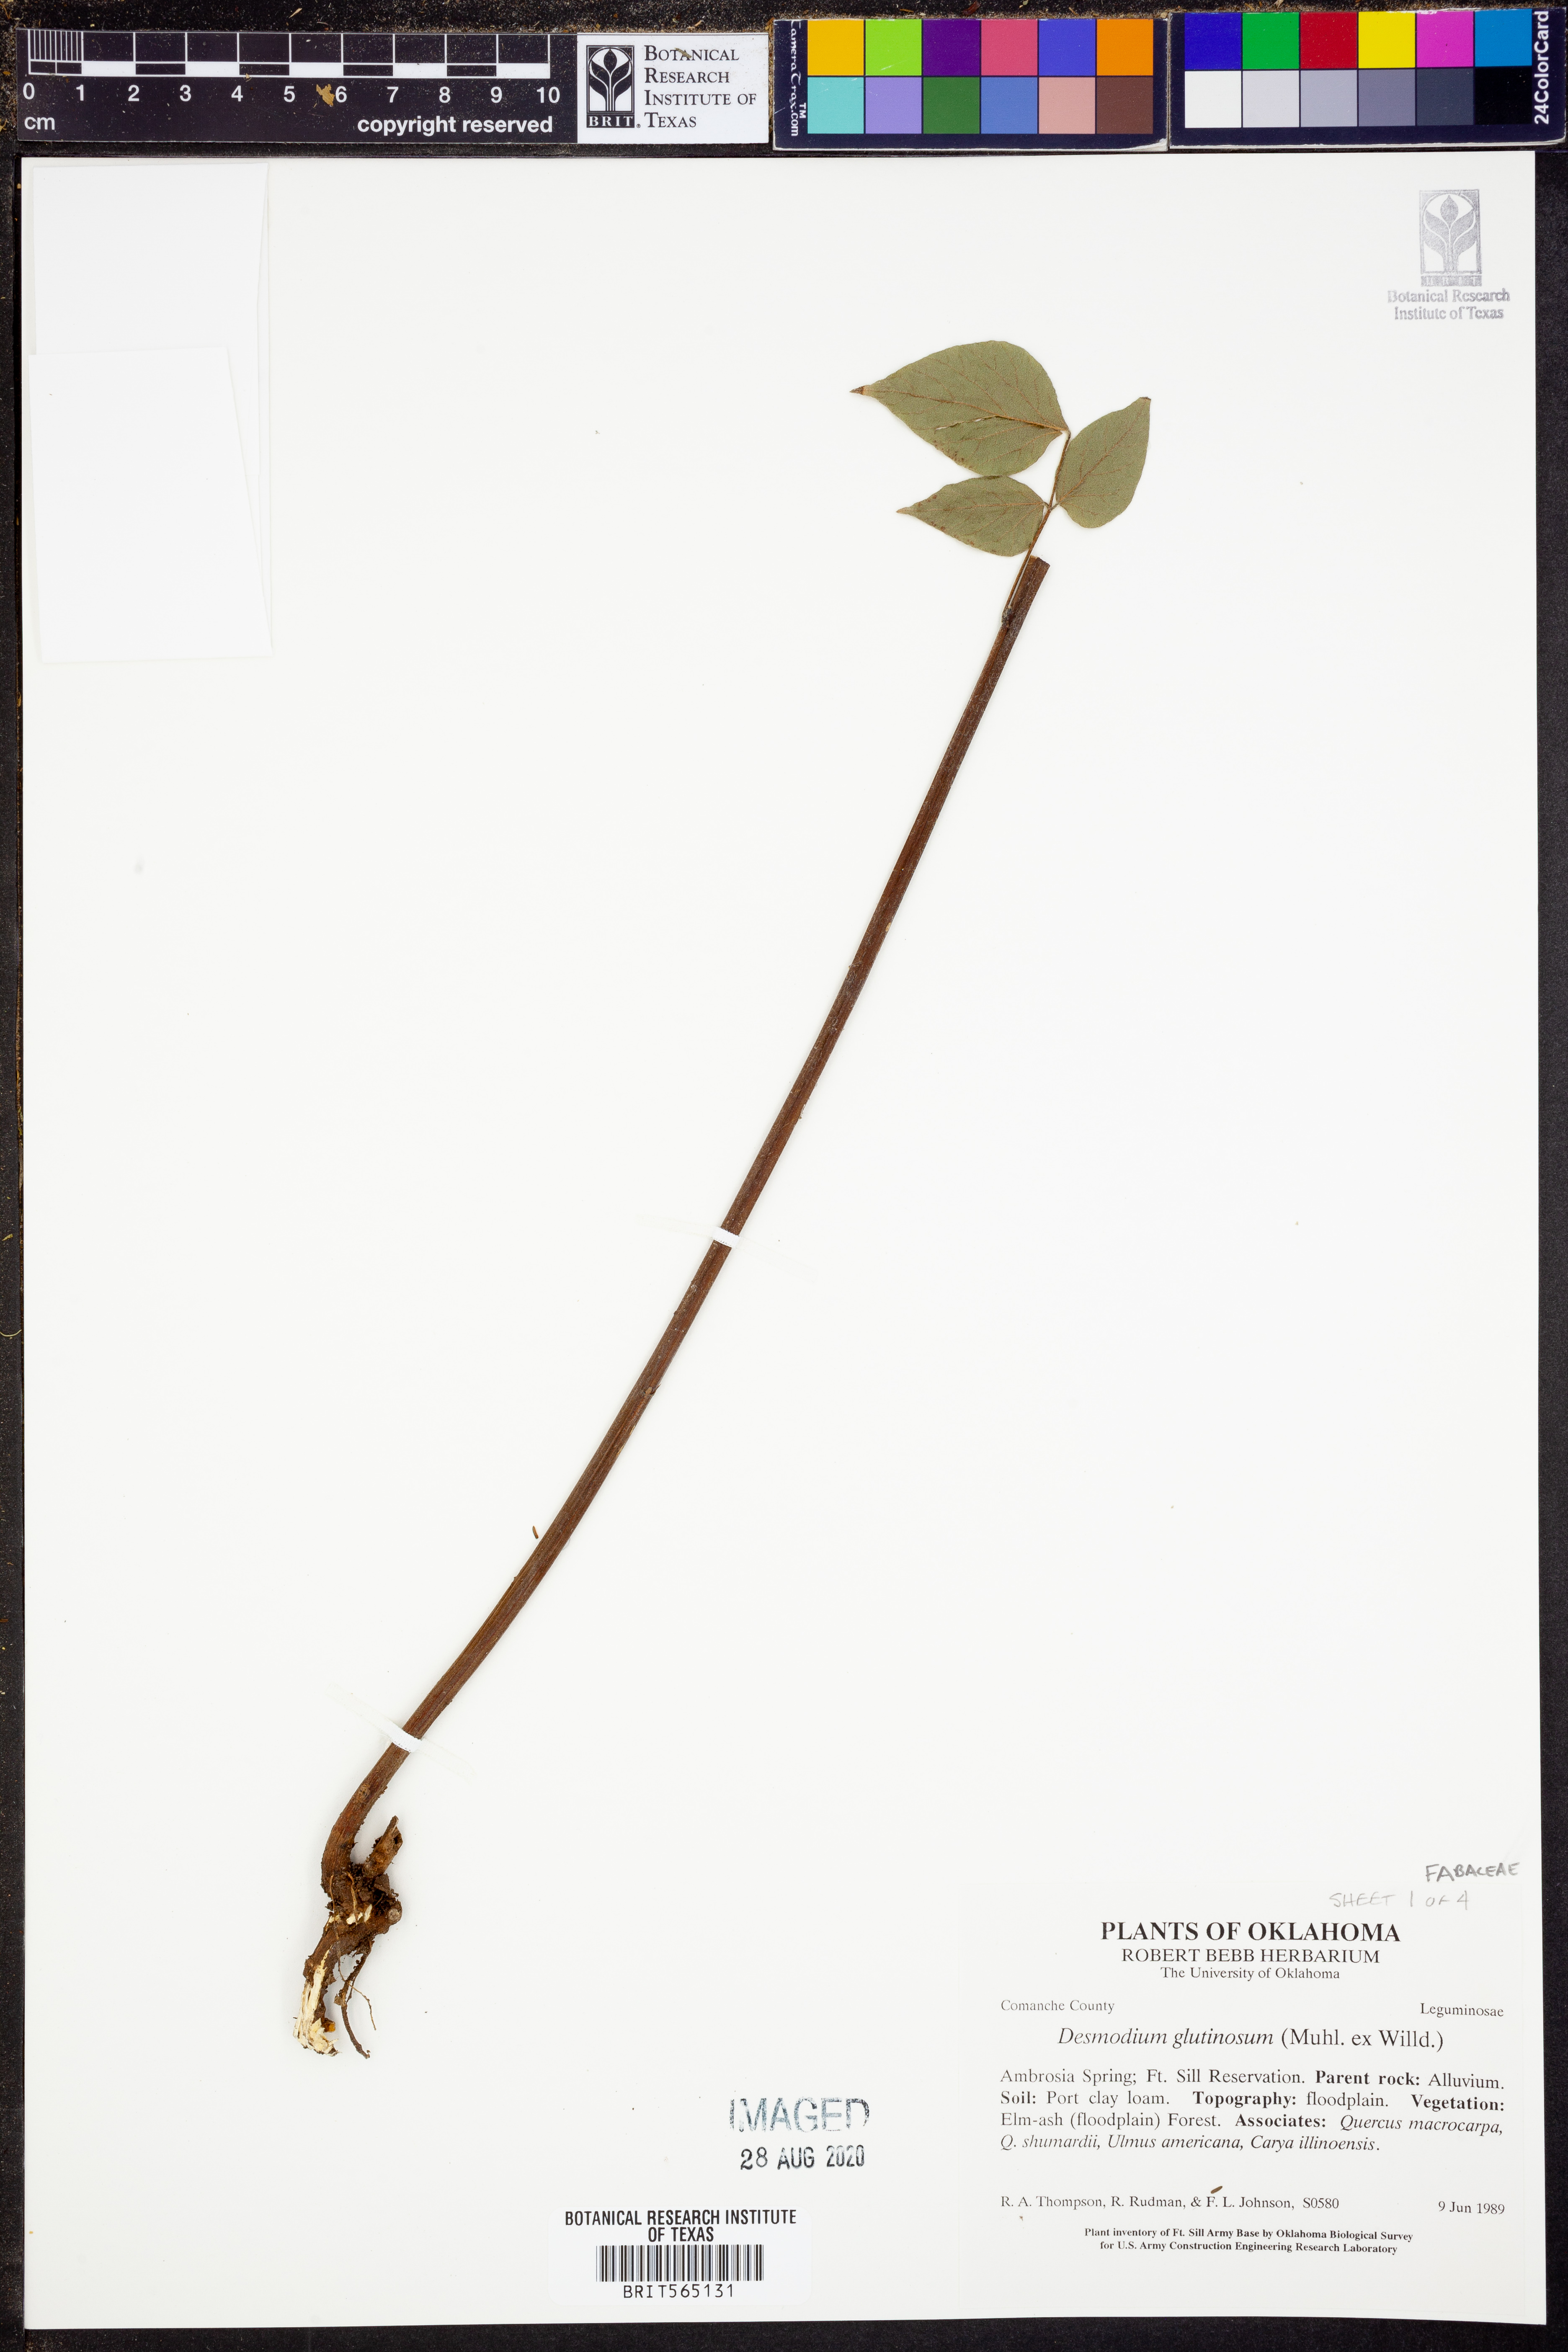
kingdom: Plantae
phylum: Tracheophyta
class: Magnoliopsida
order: Fabales
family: Fabaceae
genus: Hylodesmum
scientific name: Hylodesmum glutinosum
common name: Clustered-leaved tick-trefoil
